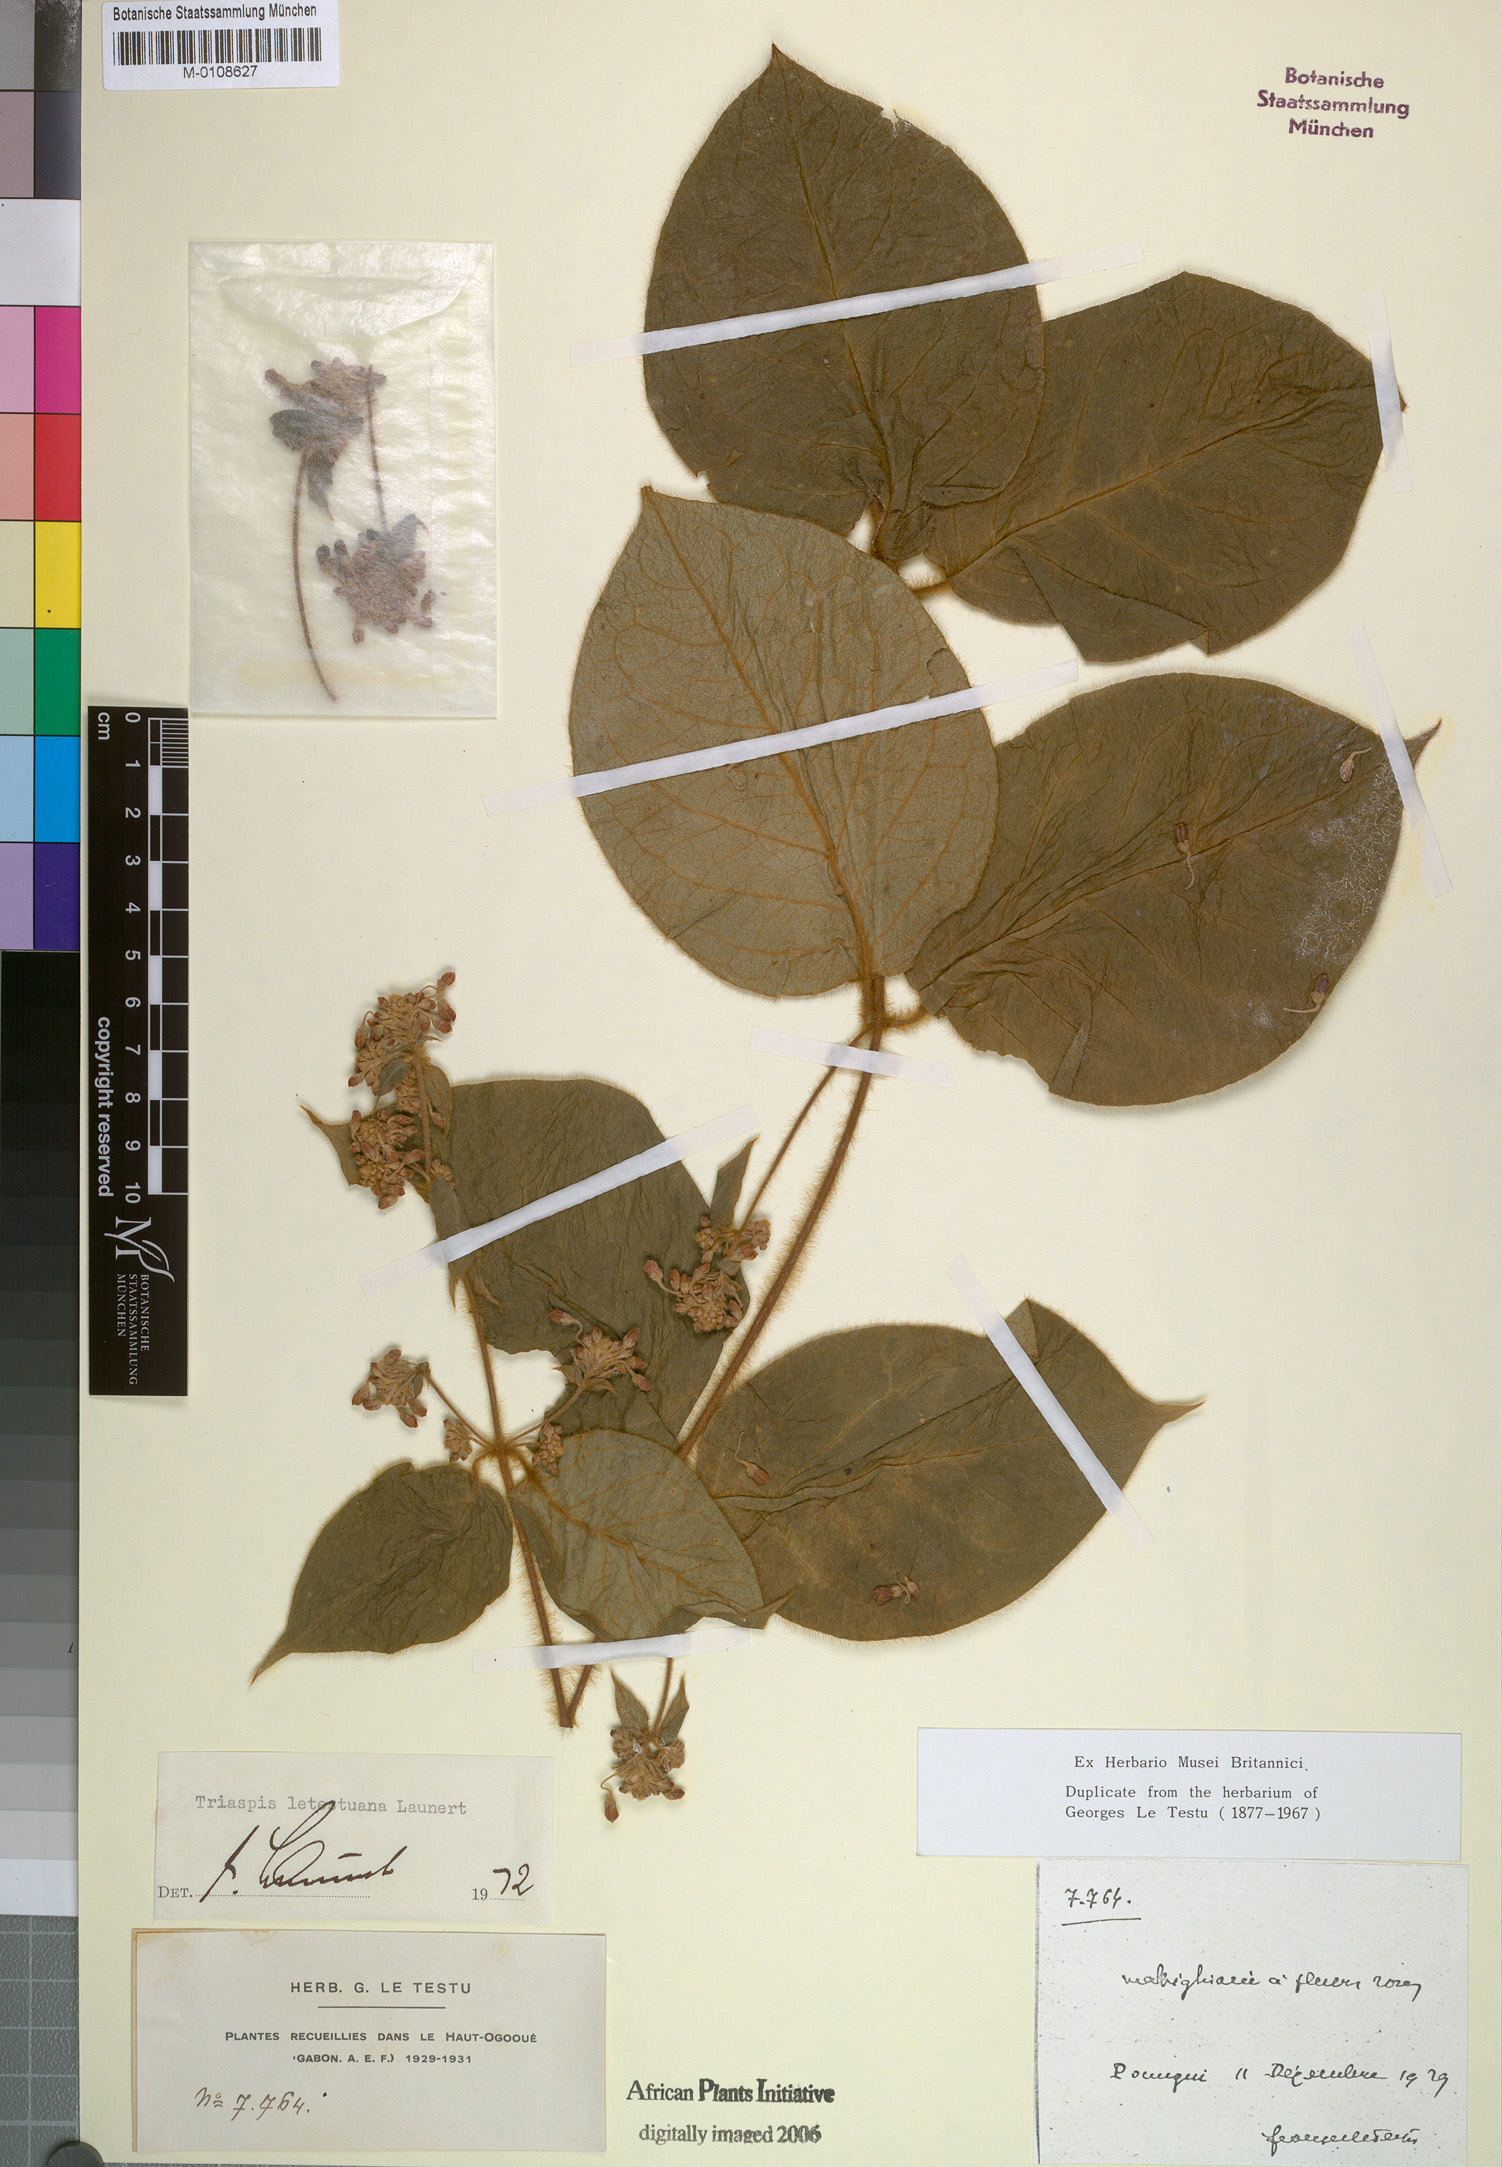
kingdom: Plantae
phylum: Tracheophyta
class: Magnoliopsida
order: Malpighiales
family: Malpighiaceae
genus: Triaspis
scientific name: Triaspis letestuana
